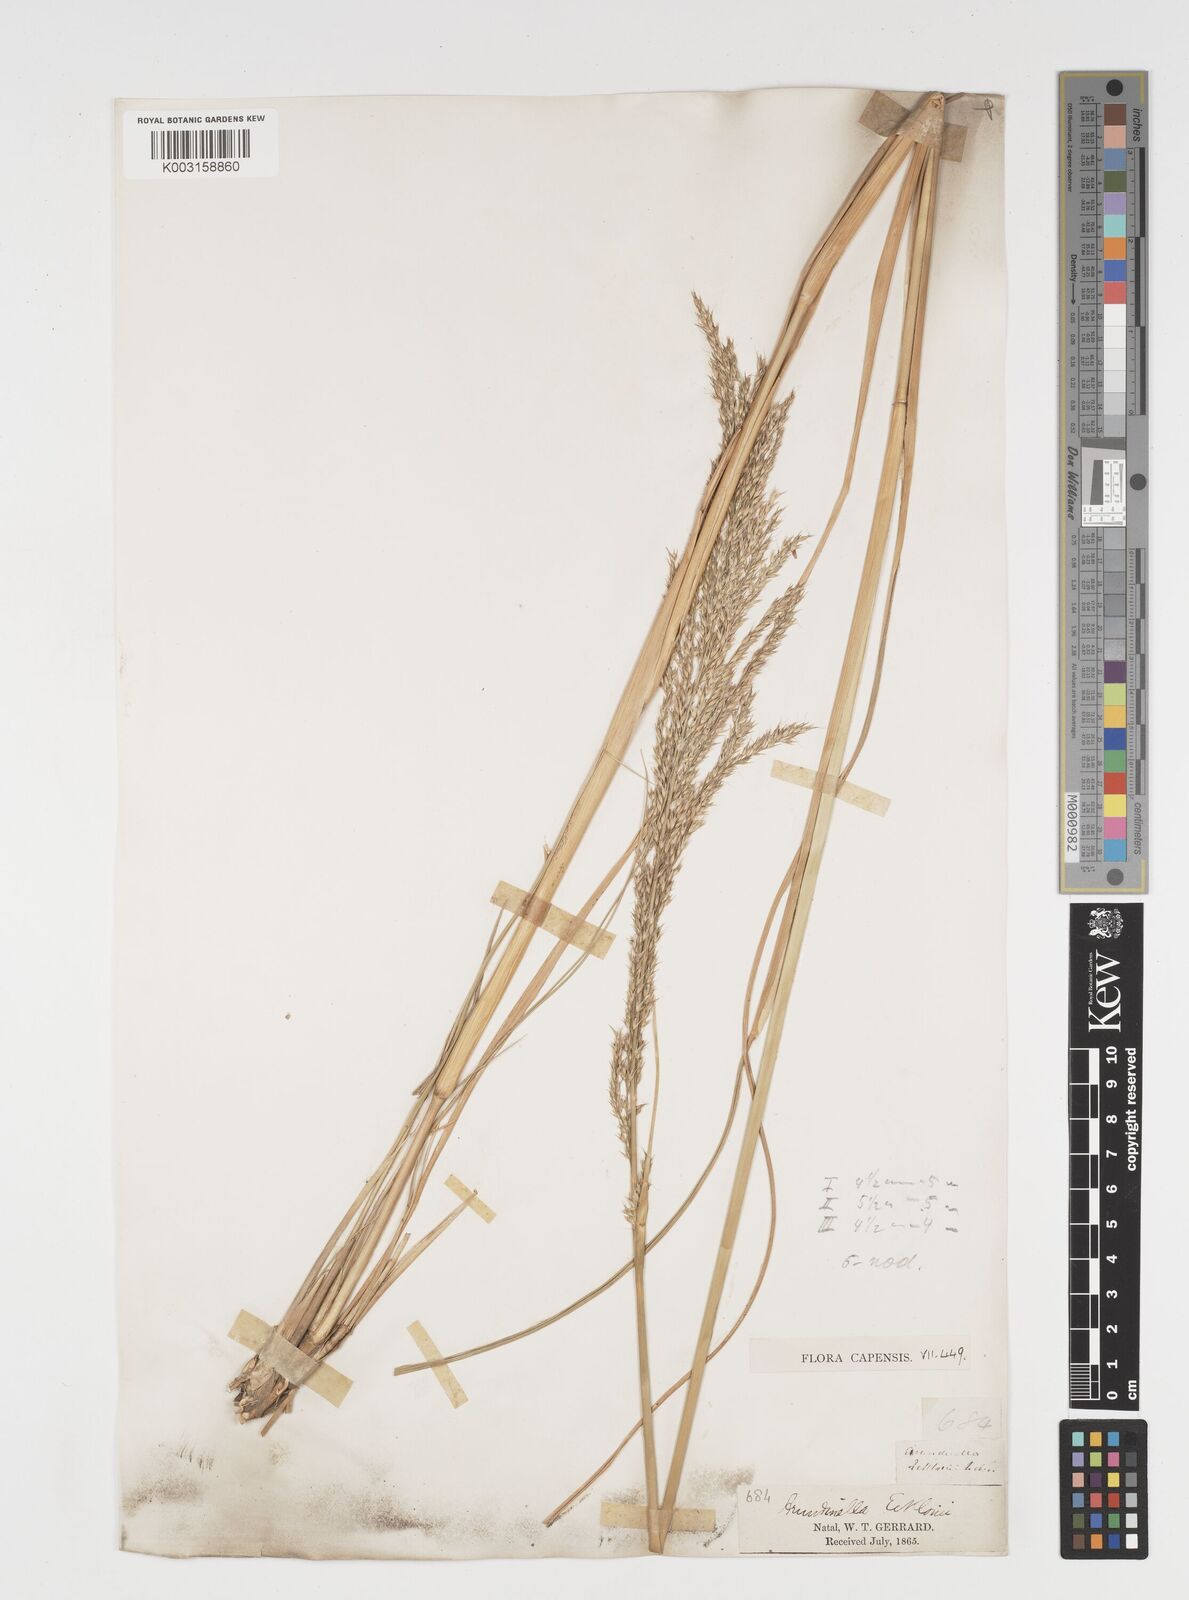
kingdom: Plantae
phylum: Tracheophyta
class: Liliopsida
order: Poales
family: Poaceae
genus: Arundinella
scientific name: Arundinella nepalensis
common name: Reed grass
